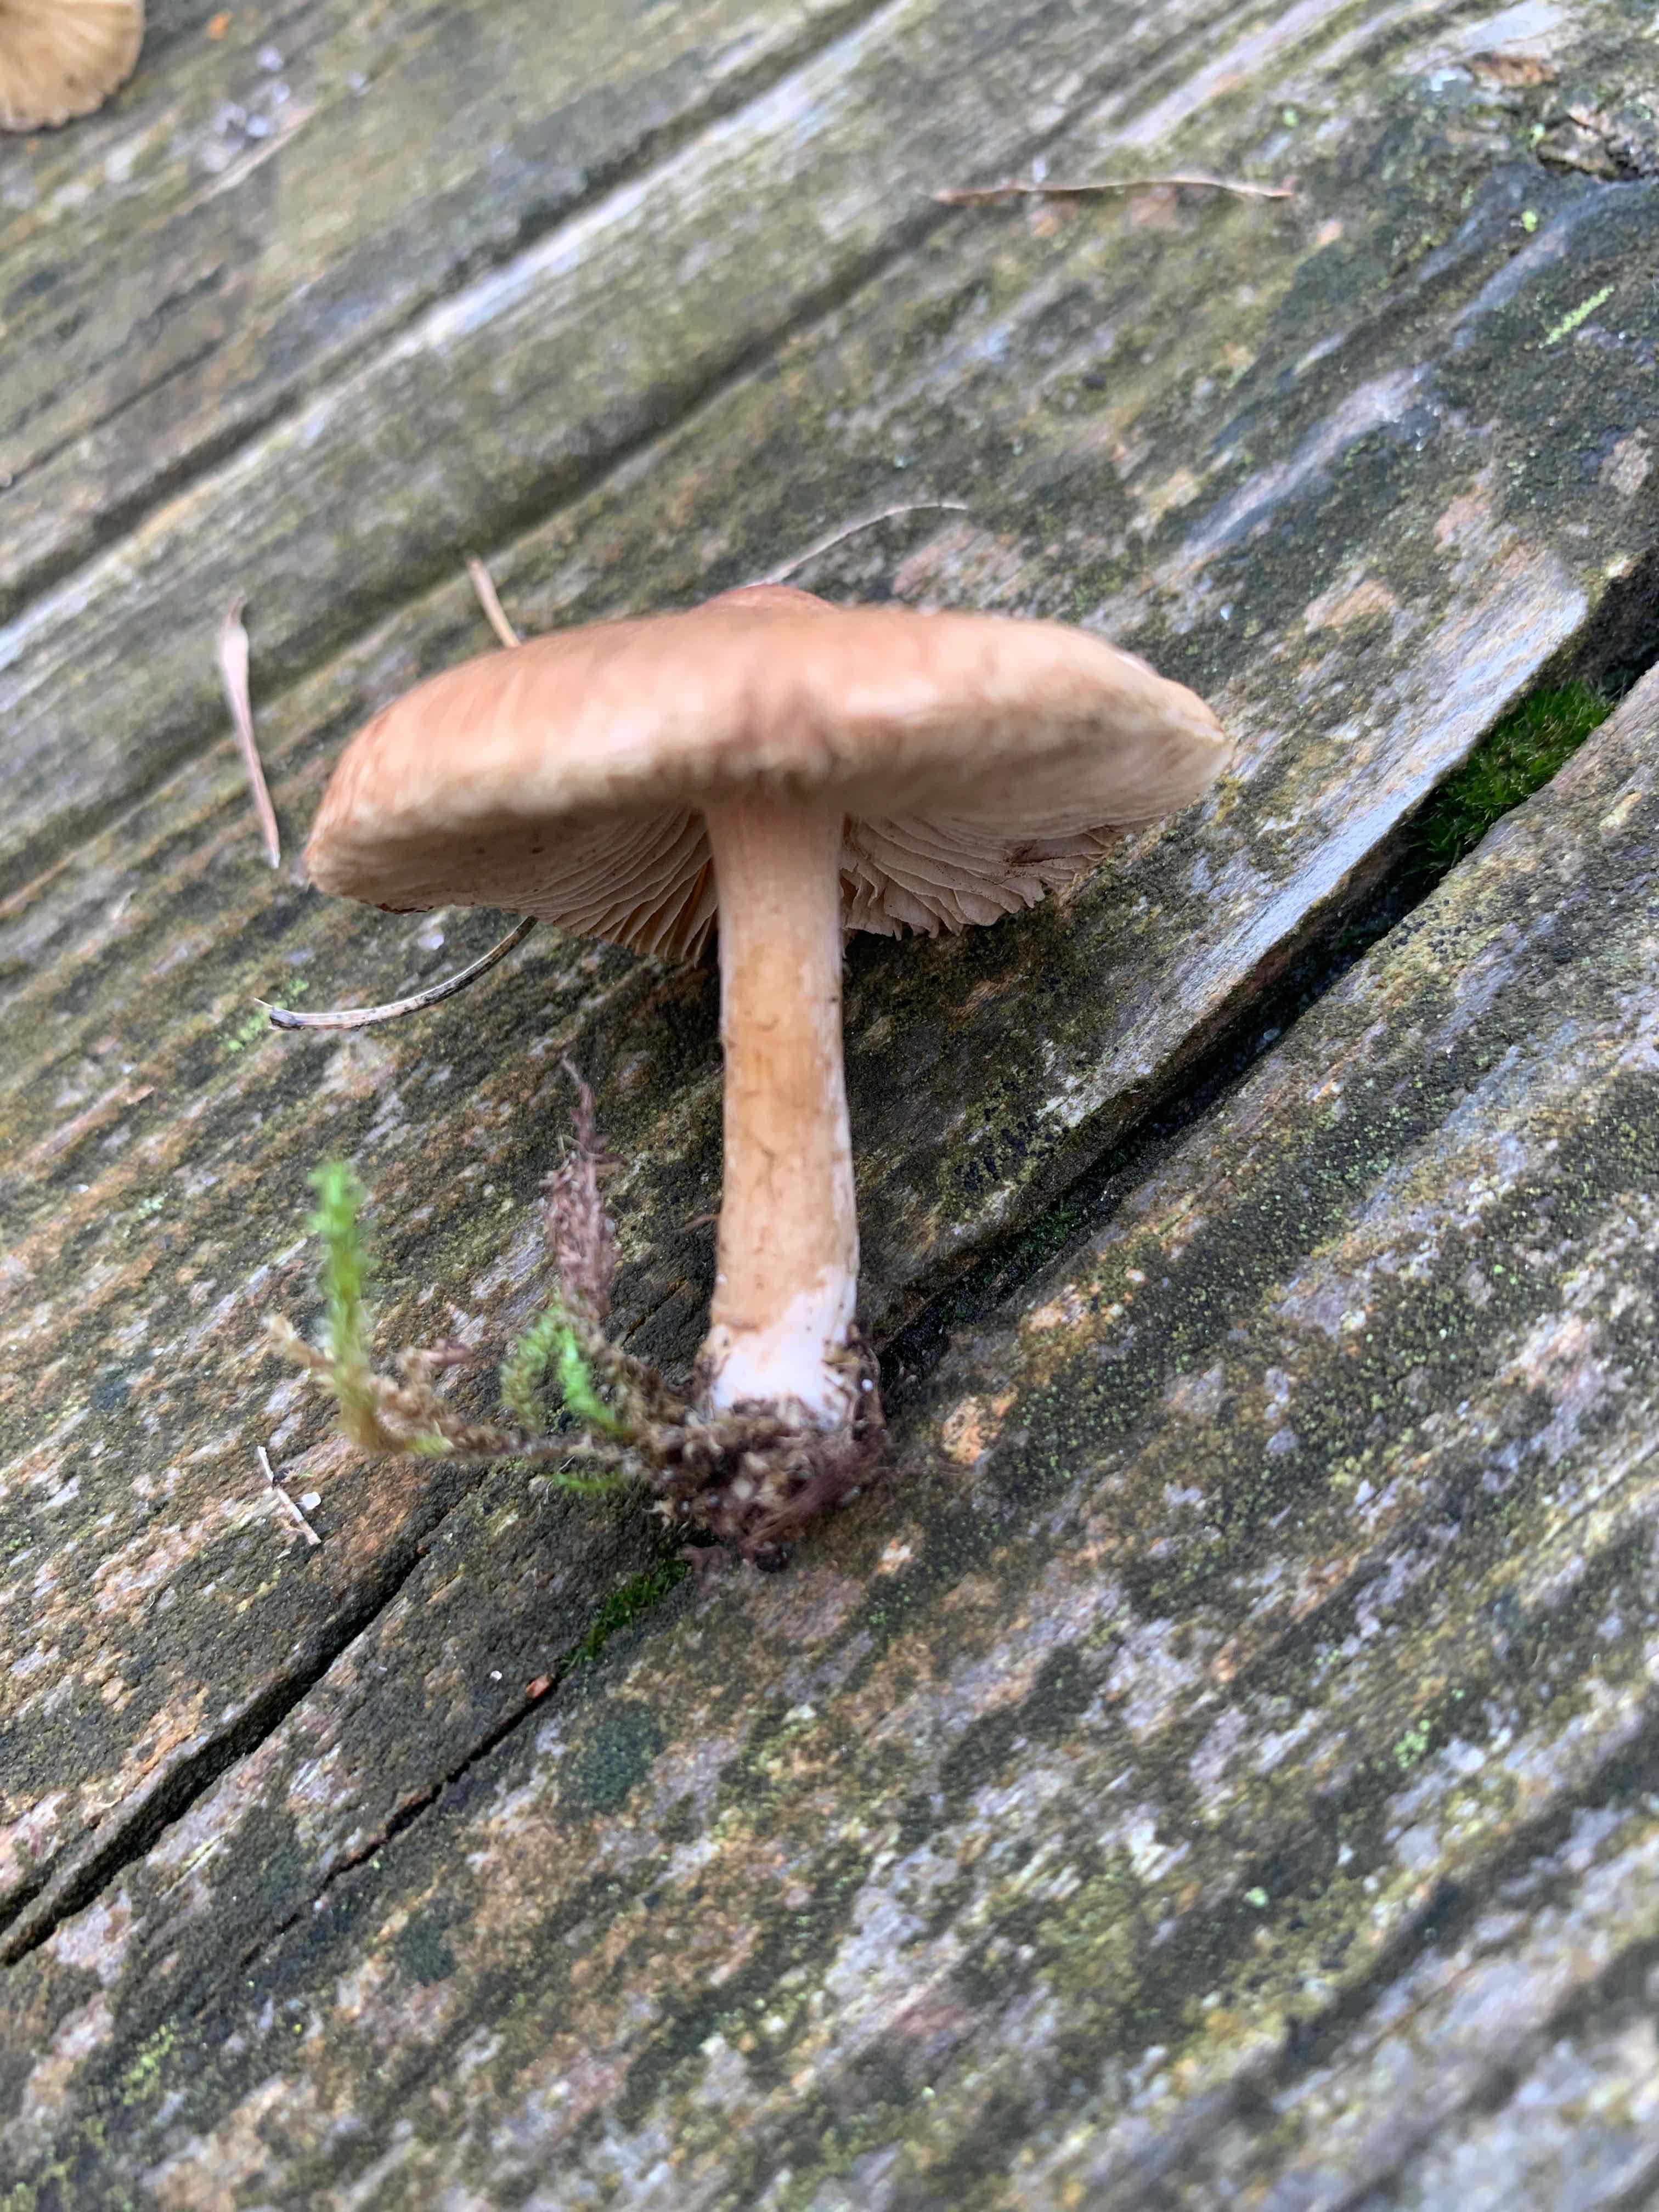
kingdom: Fungi
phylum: Basidiomycota
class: Agaricomycetes
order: Agaricales
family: Inocybaceae
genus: Inocybe
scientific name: Inocybe
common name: trævlhat
